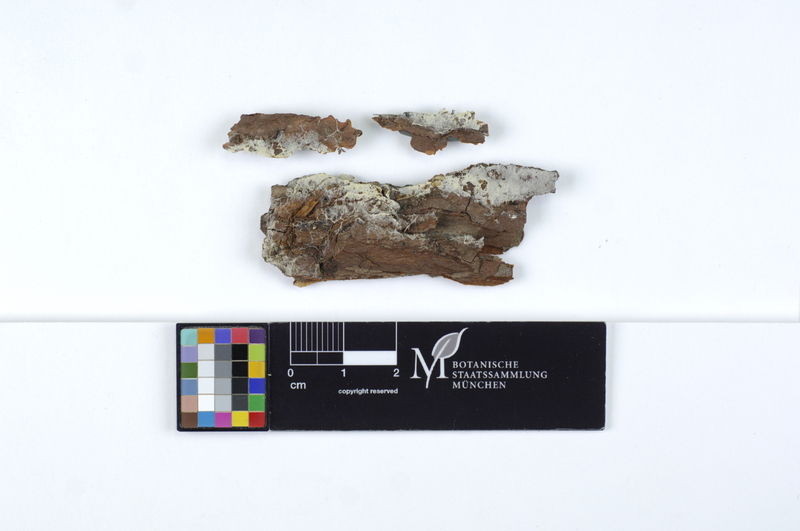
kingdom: Plantae
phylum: Tracheophyta
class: Pinopsida
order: Pinales
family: Pinaceae
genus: Pinus
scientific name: Pinus
